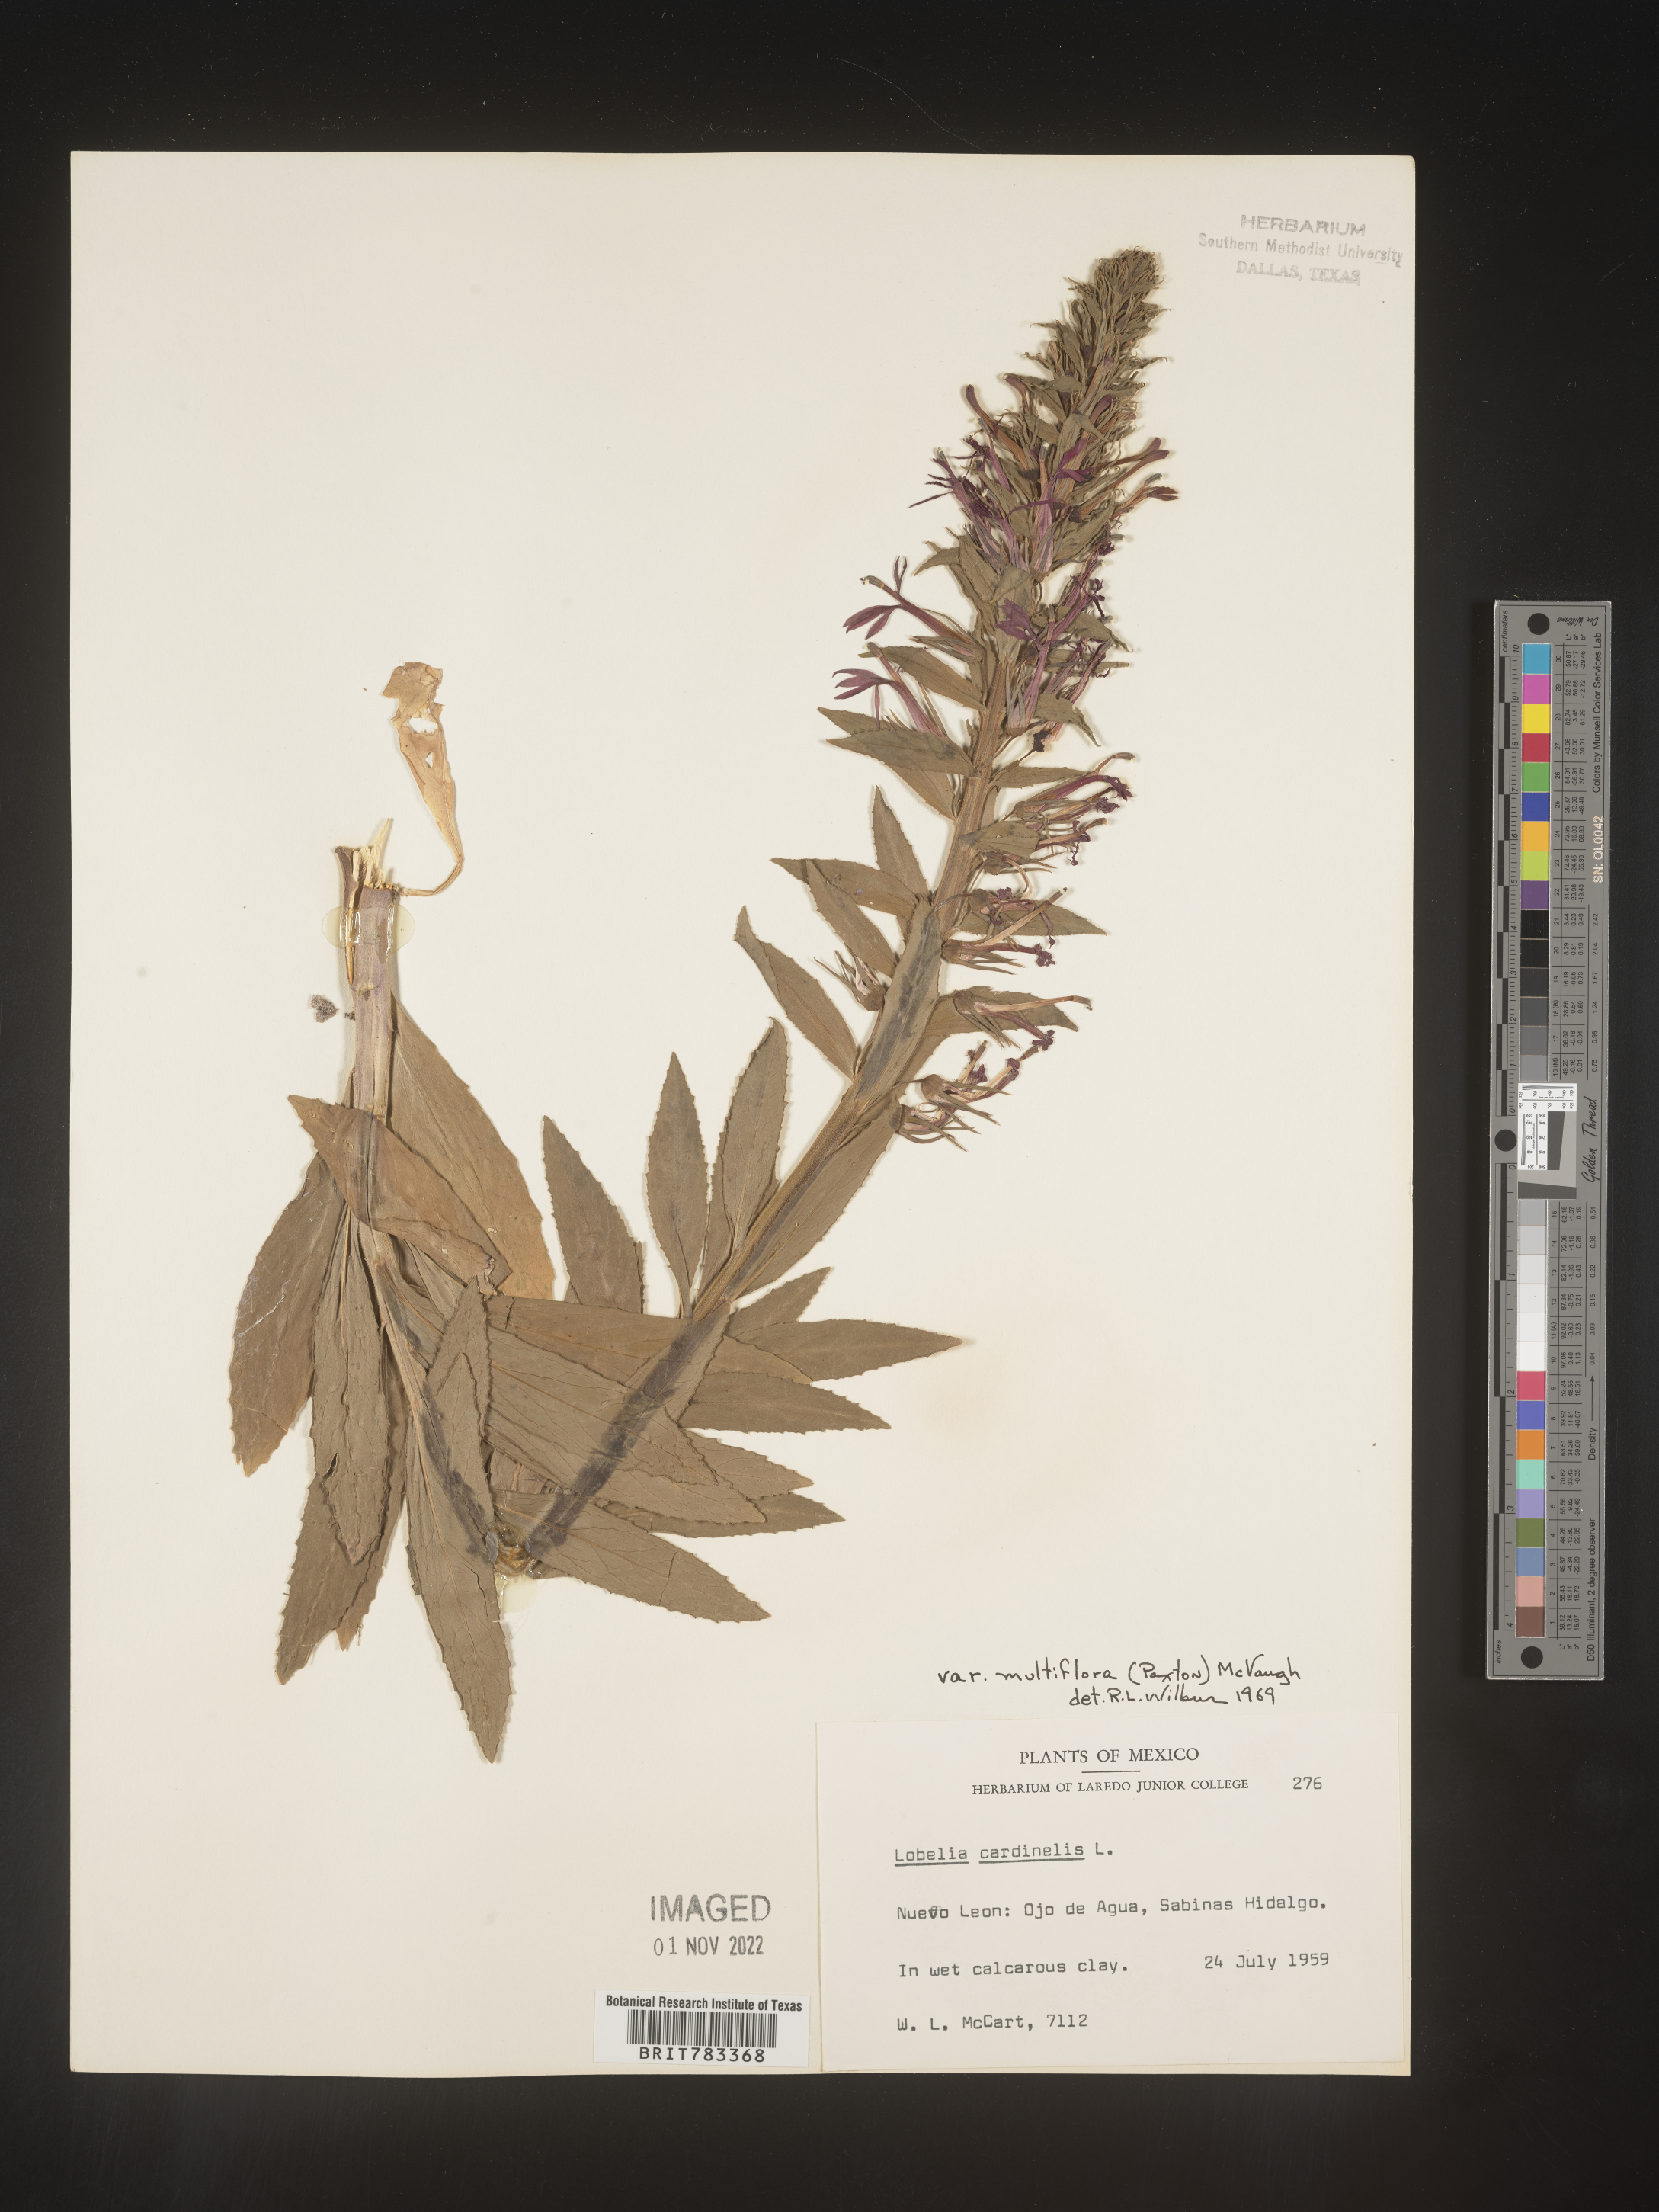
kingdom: Plantae
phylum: Tracheophyta
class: Magnoliopsida
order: Asterales
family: Campanulaceae
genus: Lobelia
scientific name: Lobelia
